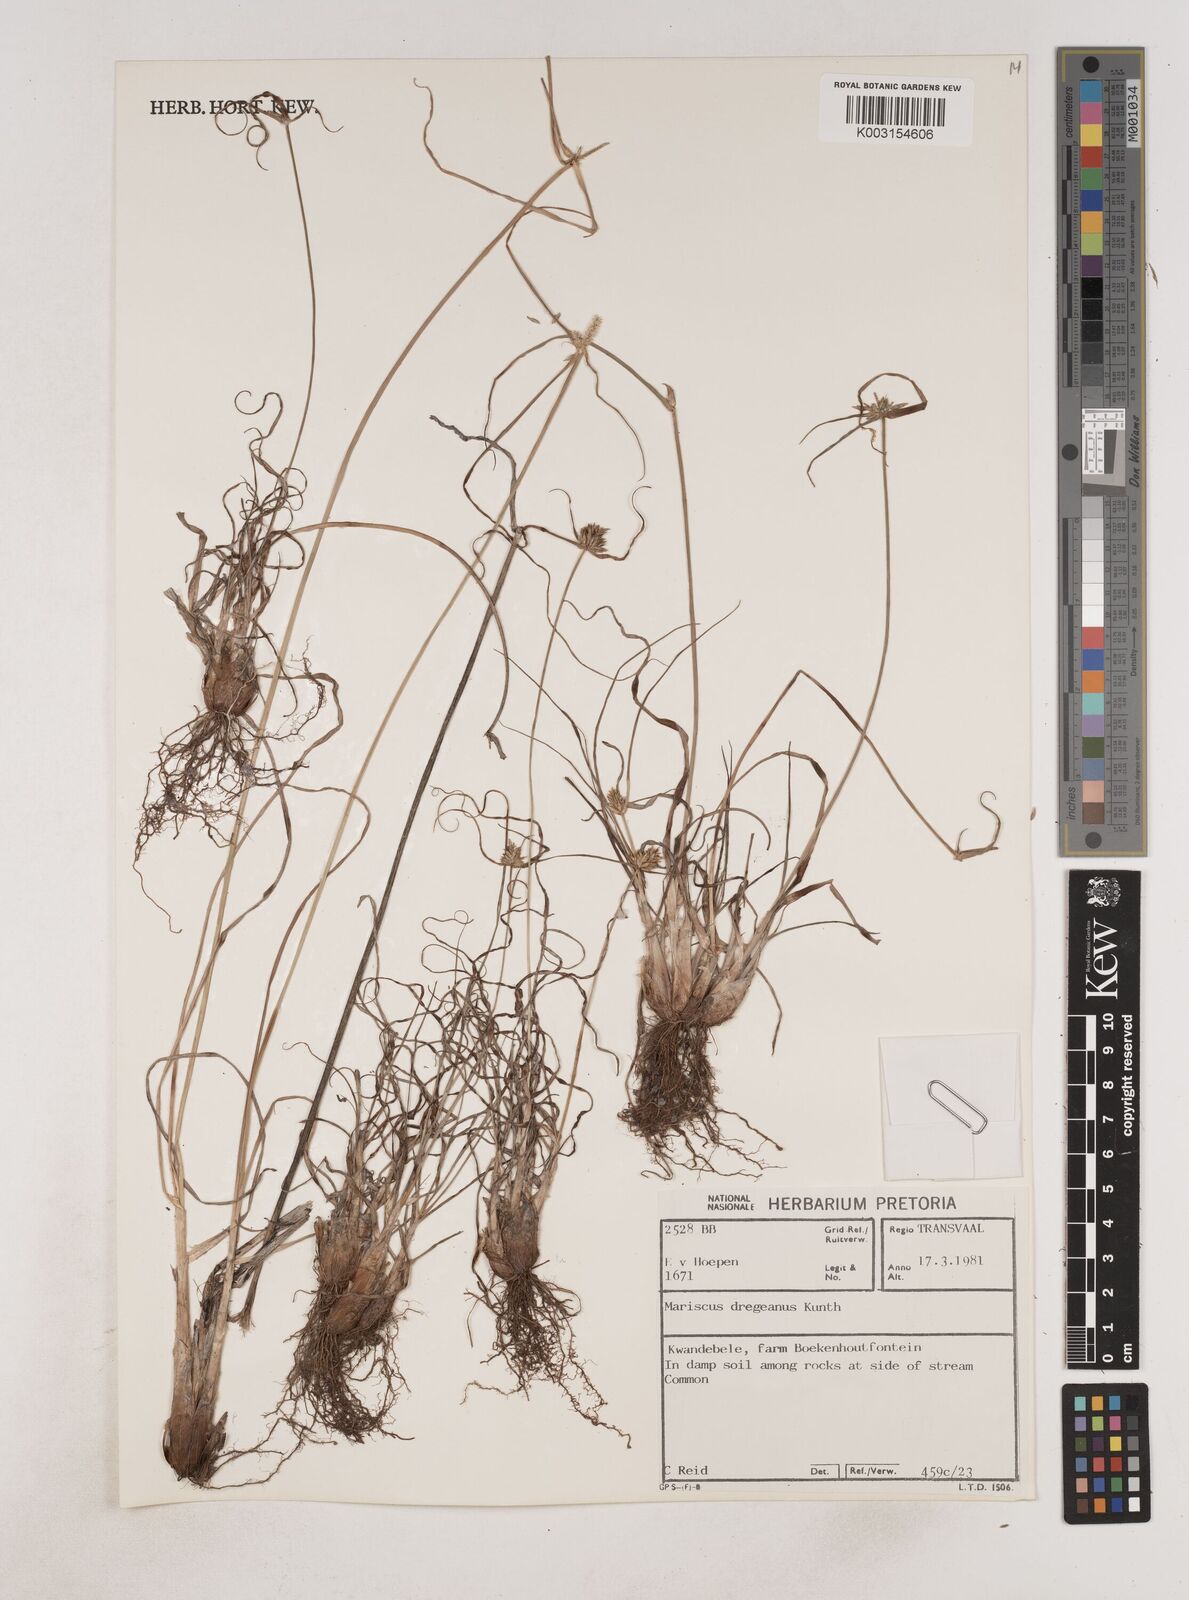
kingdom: Plantae
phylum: Tracheophyta
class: Liliopsida
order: Poales
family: Cyperaceae
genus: Cyperus
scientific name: Cyperus dubius
